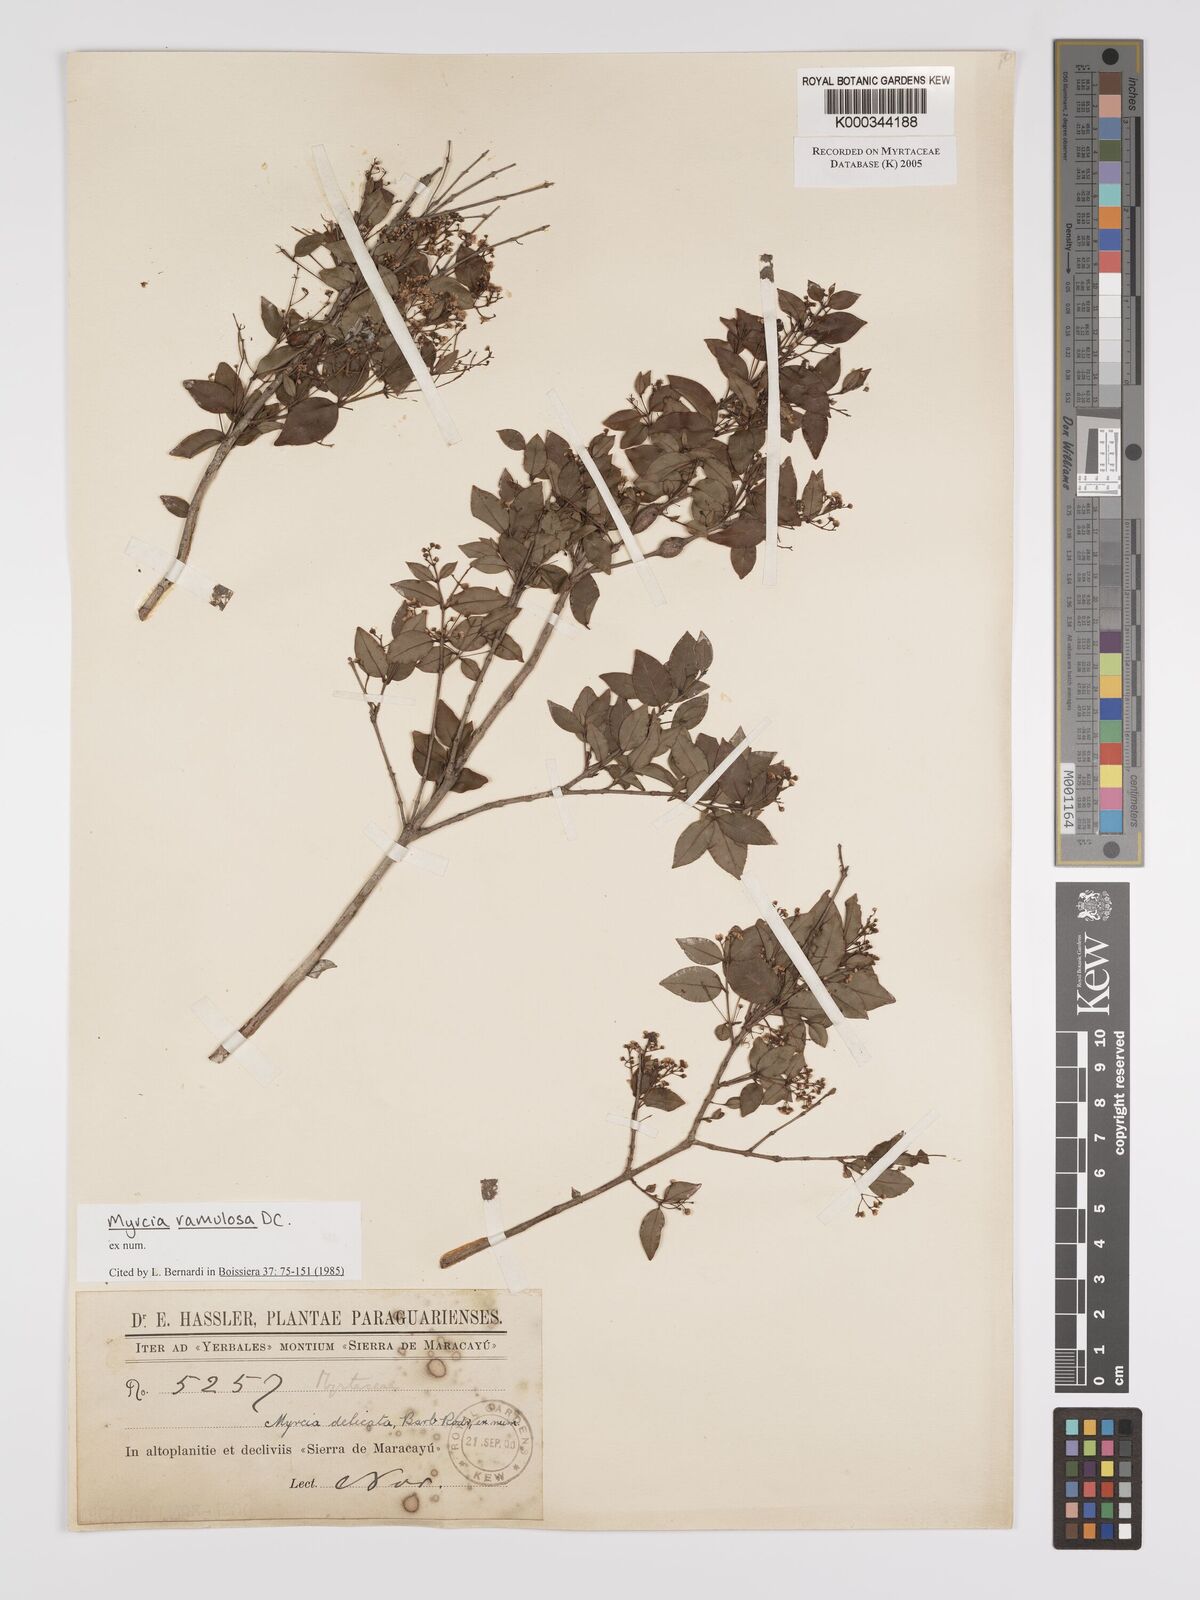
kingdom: Plantae
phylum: Tracheophyta
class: Magnoliopsida
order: Myrtales
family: Myrtaceae
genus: Myrcia
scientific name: Myrcia selloi
